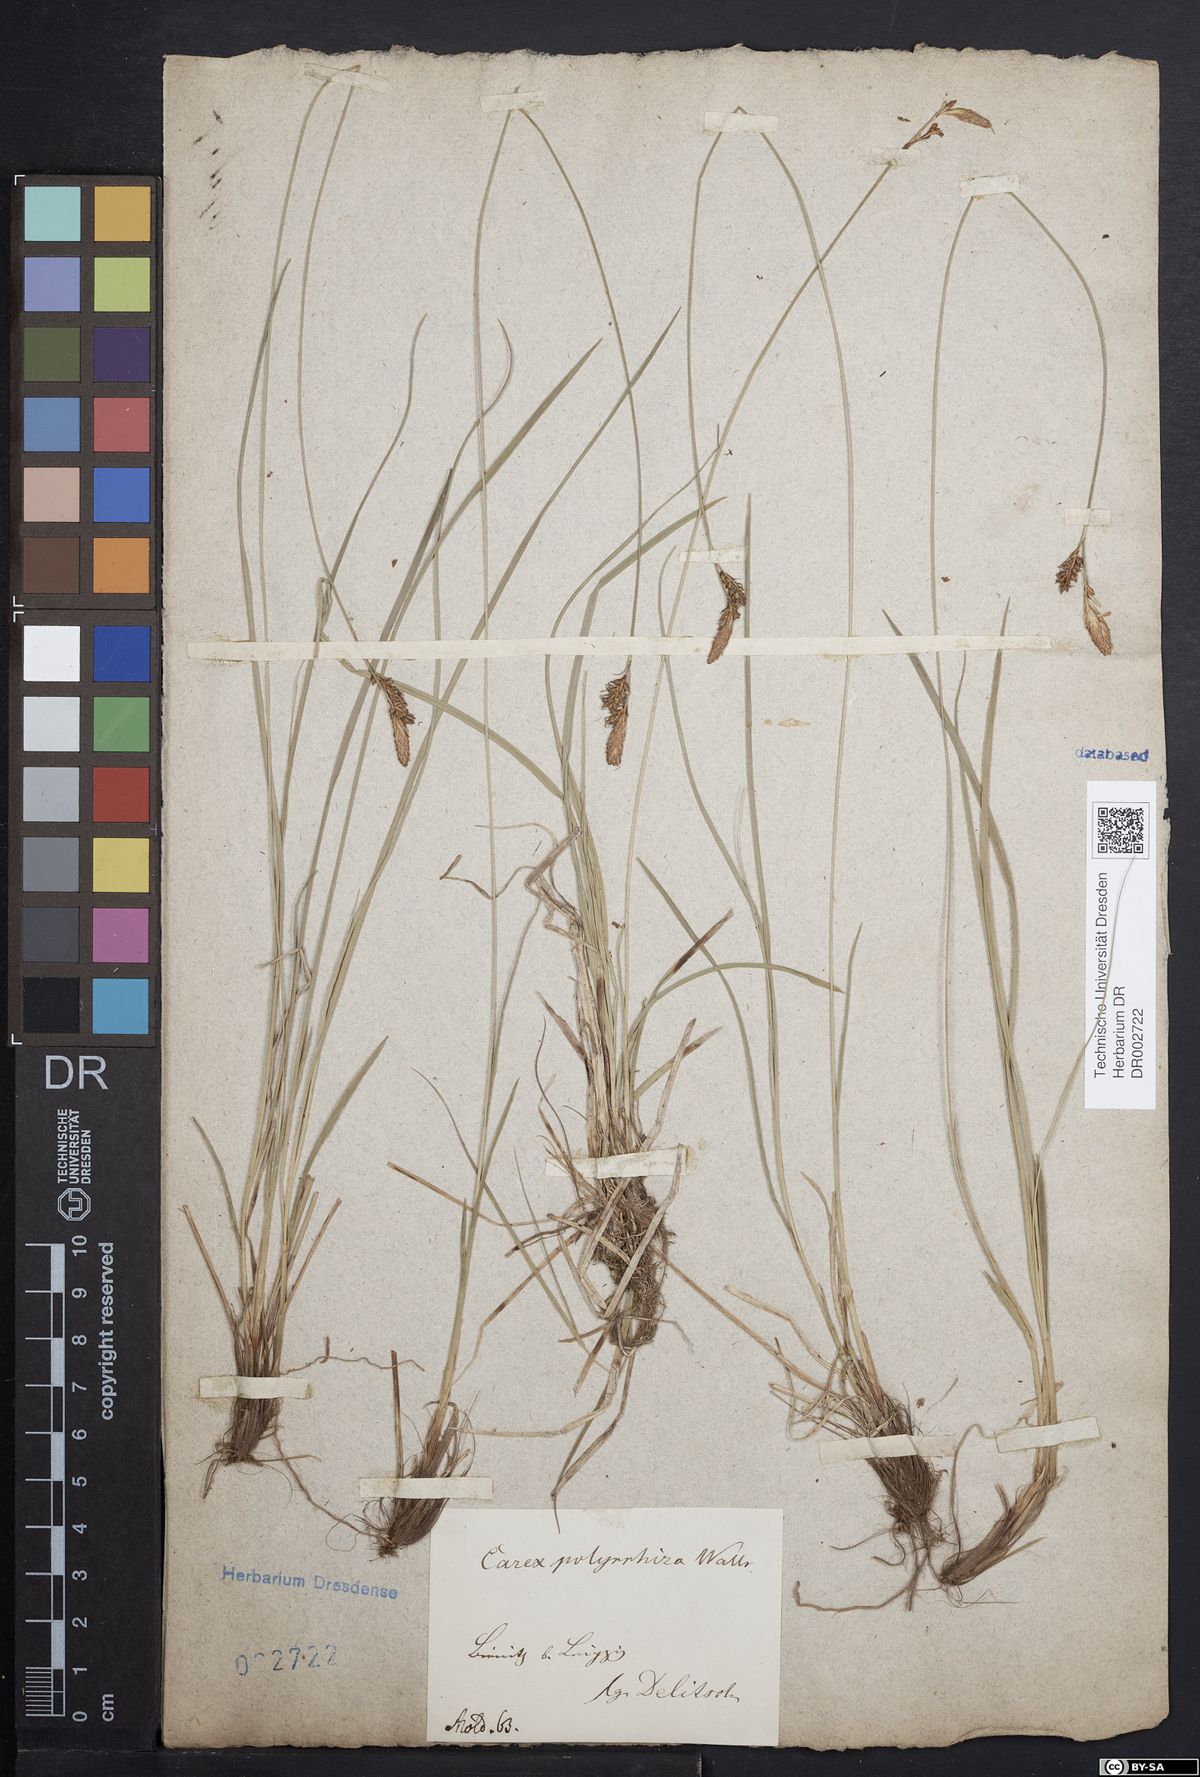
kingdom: Plantae
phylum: Tracheophyta
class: Liliopsida
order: Poales
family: Cyperaceae
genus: Carex
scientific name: Carex umbrosa
